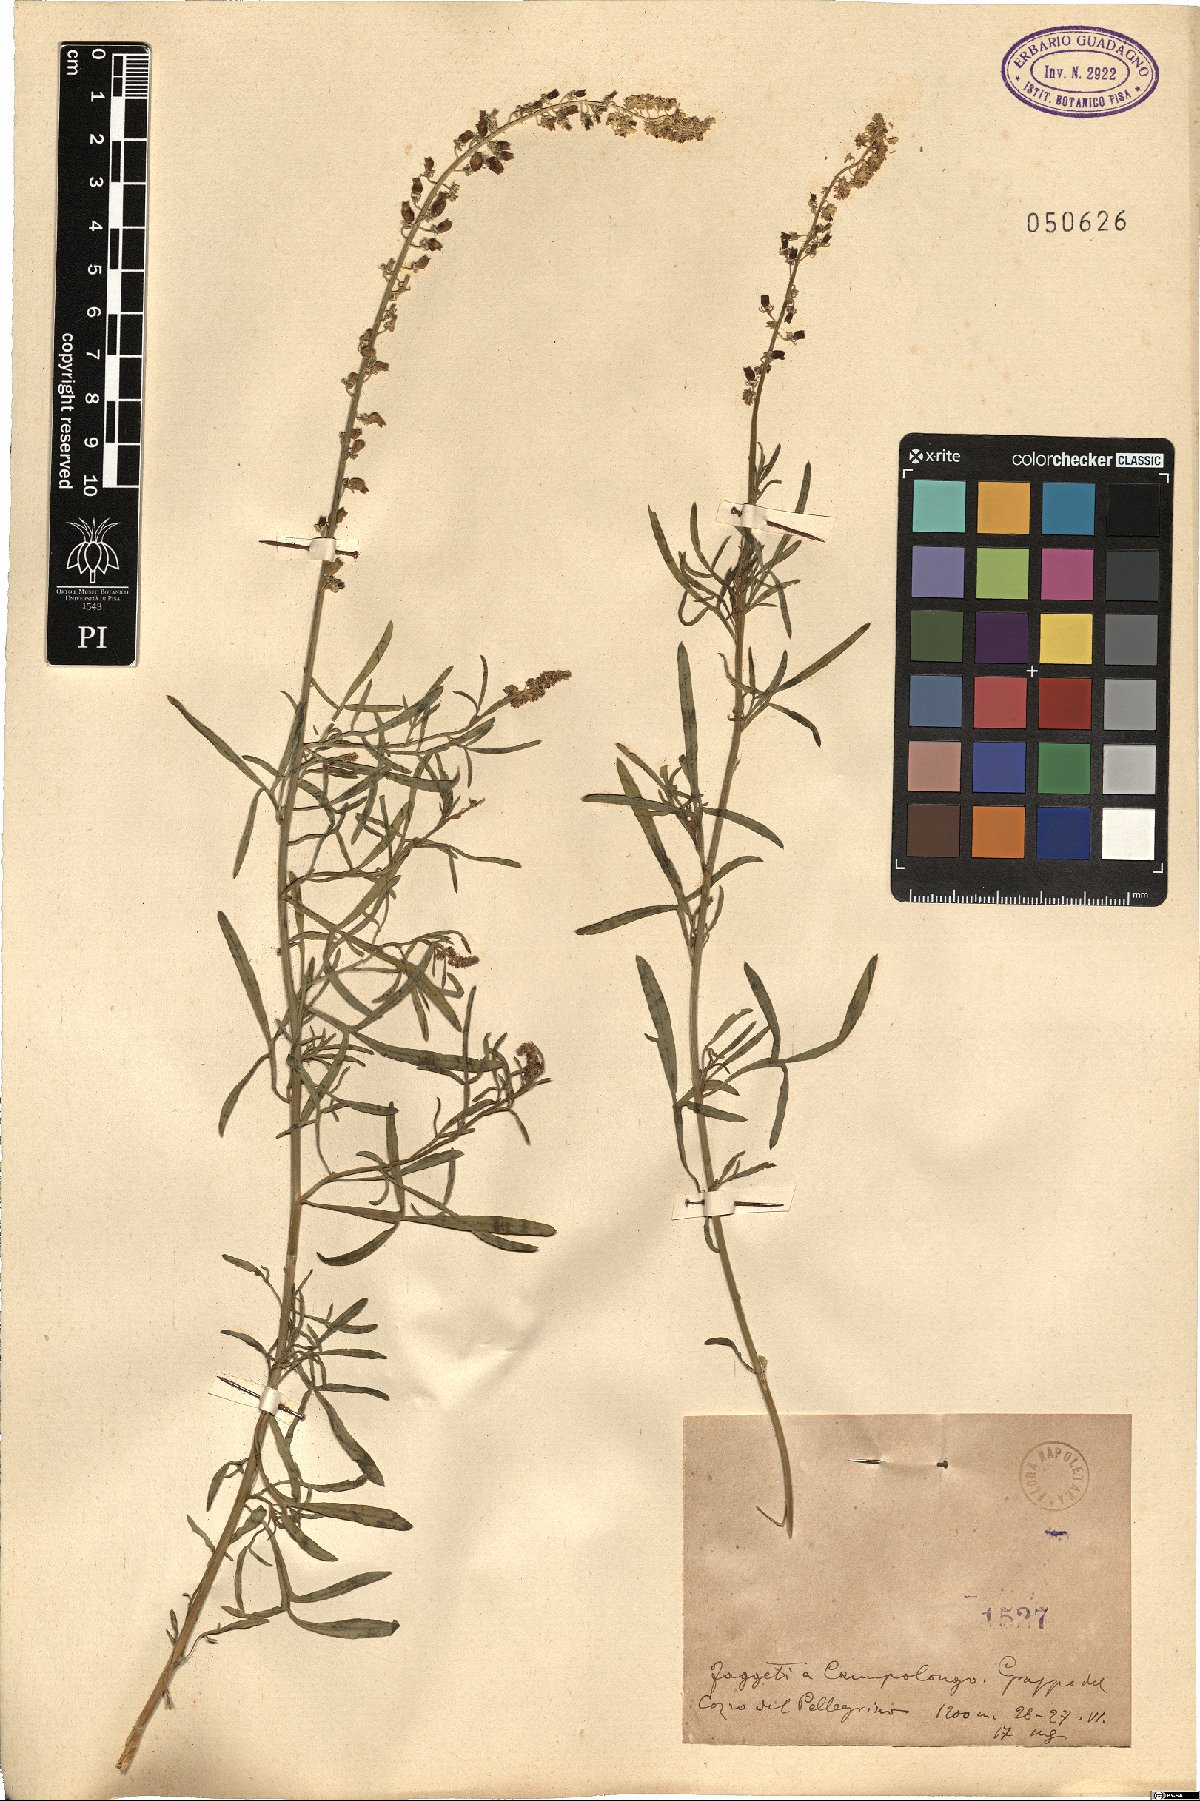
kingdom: Plantae
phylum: Tracheophyta
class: Magnoliopsida
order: Brassicales
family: Resedaceae
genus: Reseda
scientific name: Reseda
